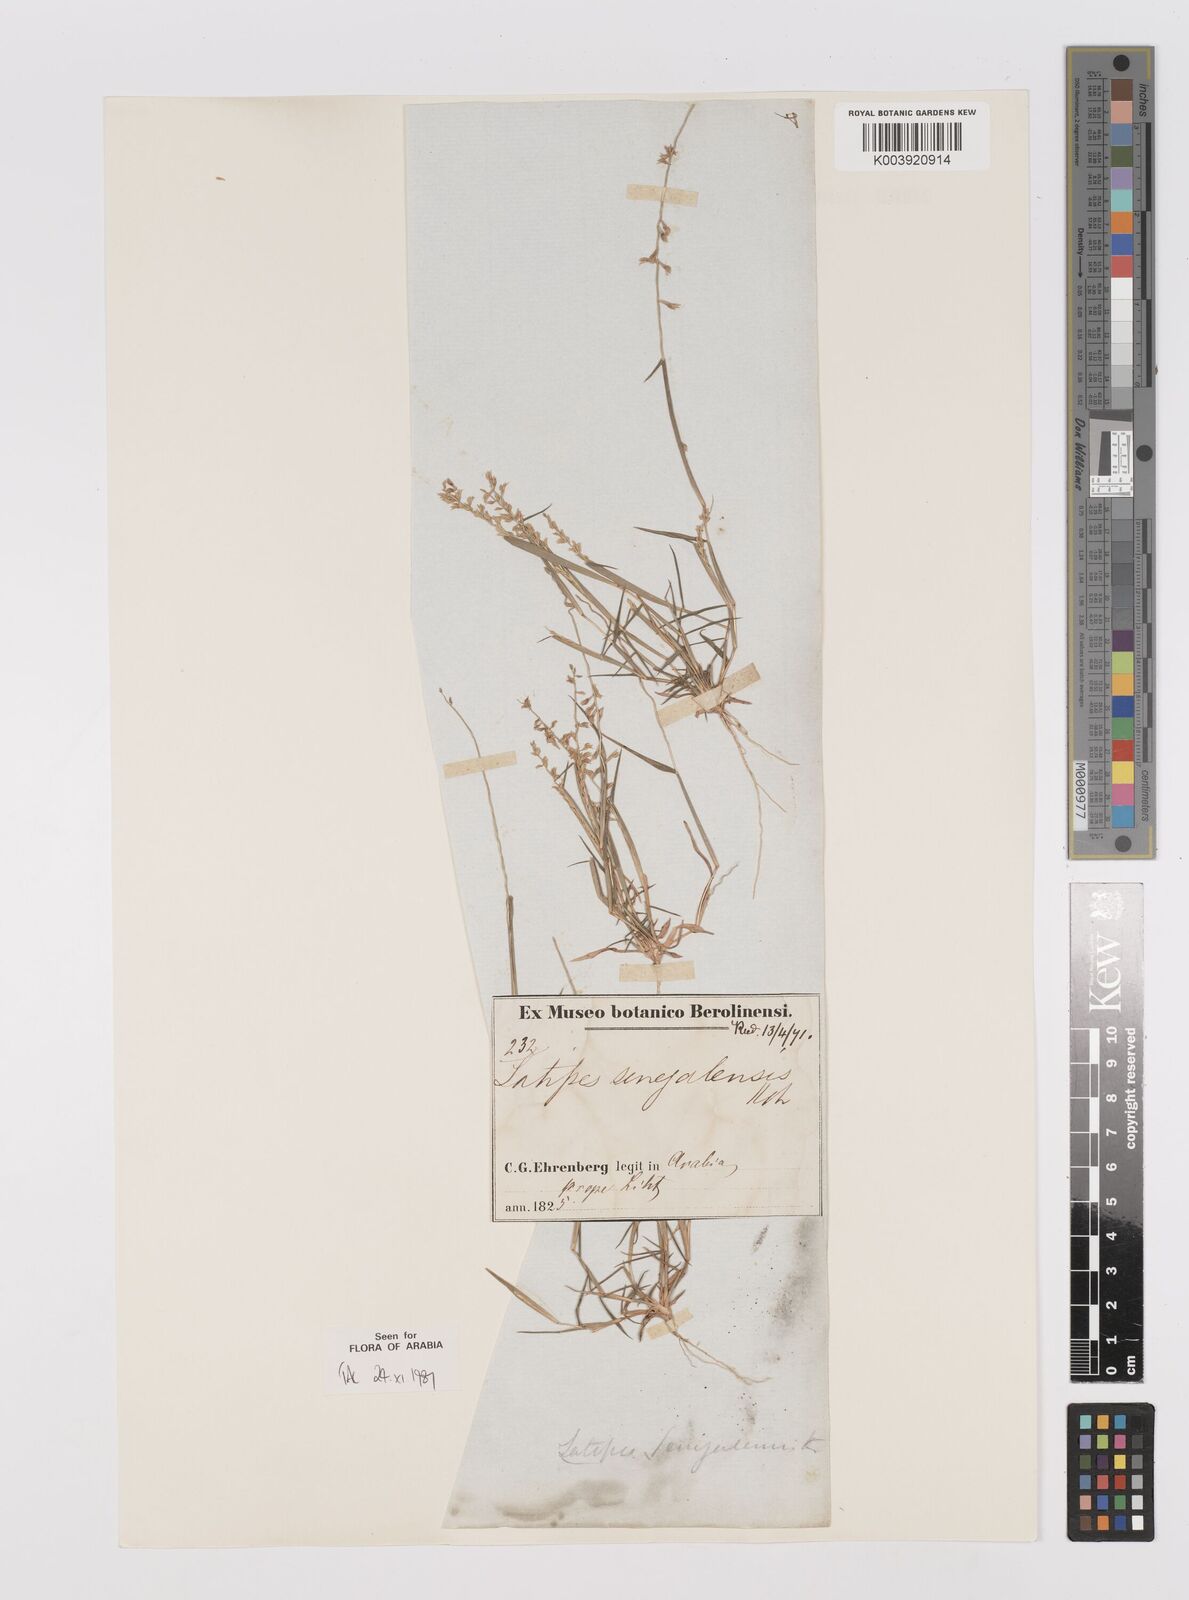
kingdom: Plantae
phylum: Tracheophyta
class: Liliopsida
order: Poales
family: Poaceae
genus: Leptothrium
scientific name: Leptothrium senegalense
